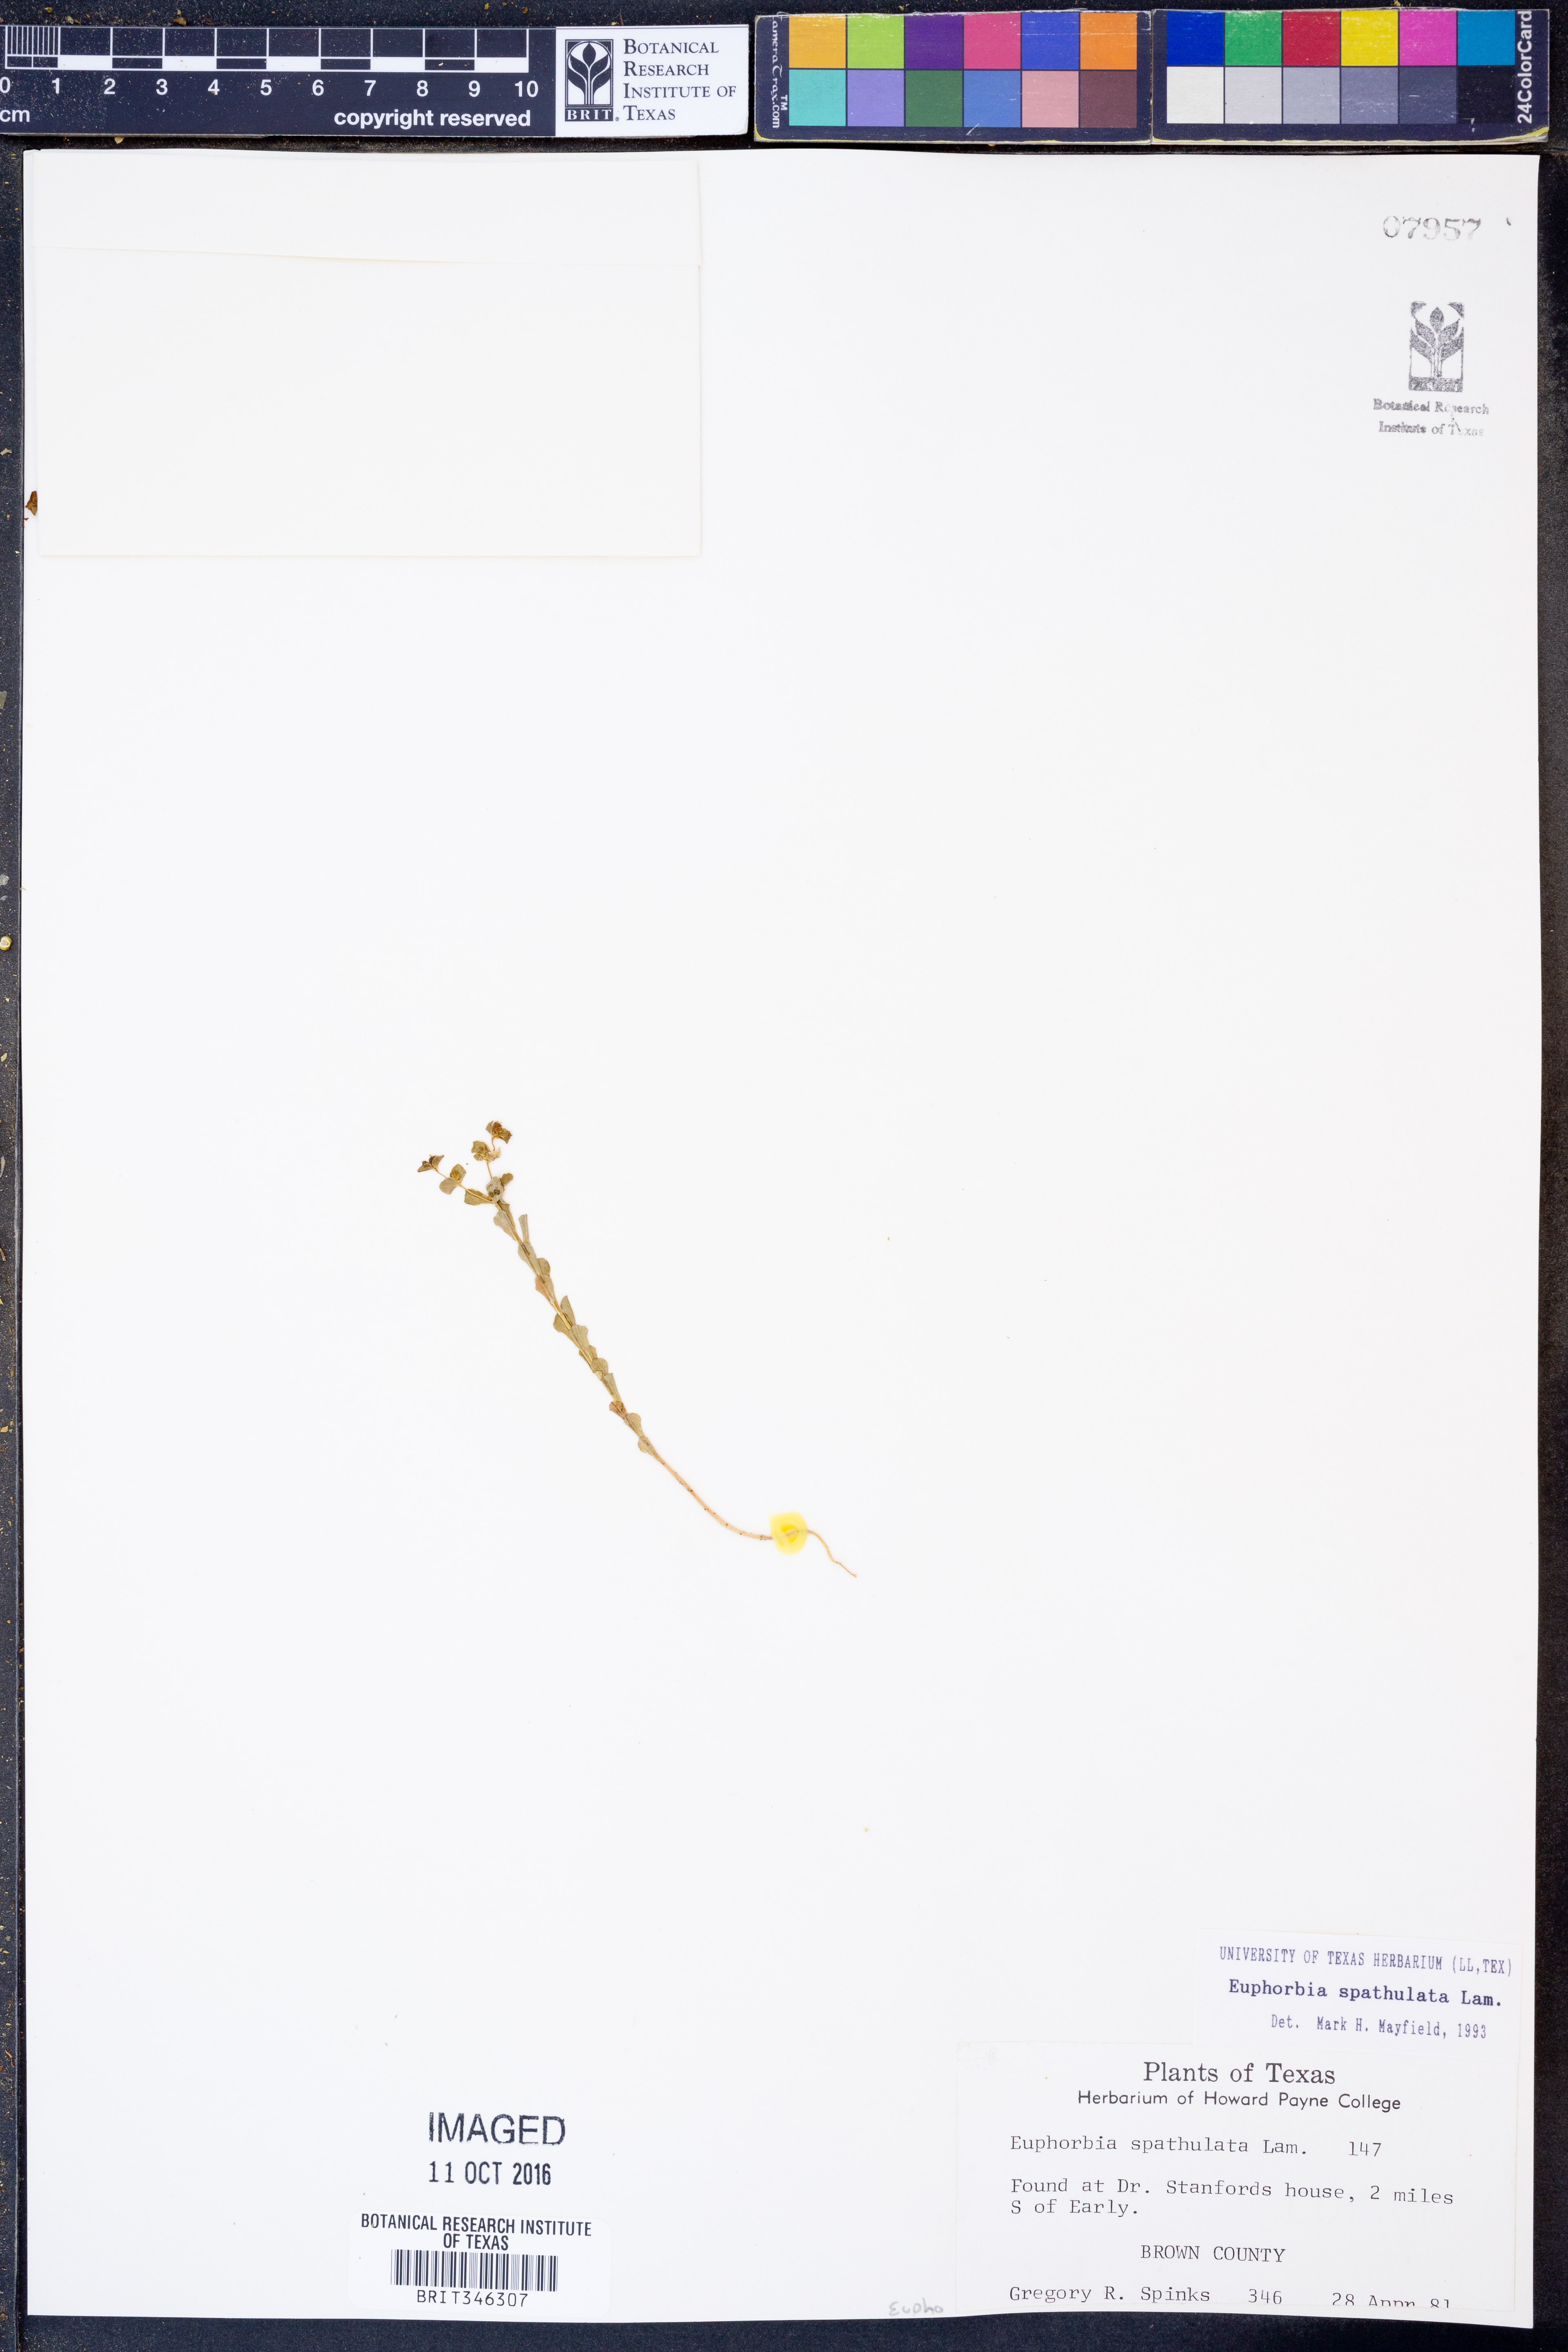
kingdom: Plantae
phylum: Tracheophyta
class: Magnoliopsida
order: Malpighiales
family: Euphorbiaceae
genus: Euphorbia
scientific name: Euphorbia spathulata
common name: Blunt spurge
